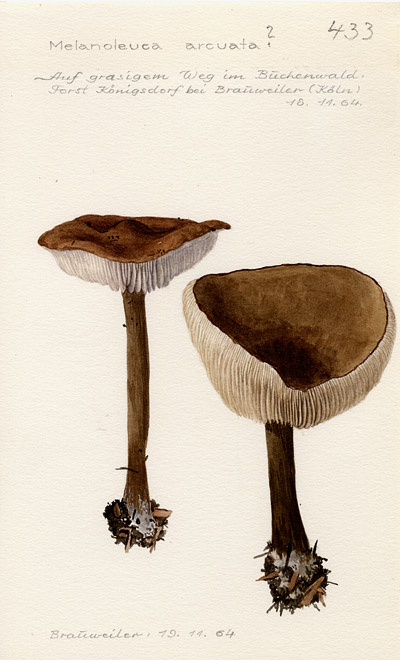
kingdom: Fungi
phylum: Basidiomycota
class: Agaricomycetes
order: Agaricales
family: Tricholomataceae
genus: Melanoleuca
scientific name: Melanoleuca arcuata
